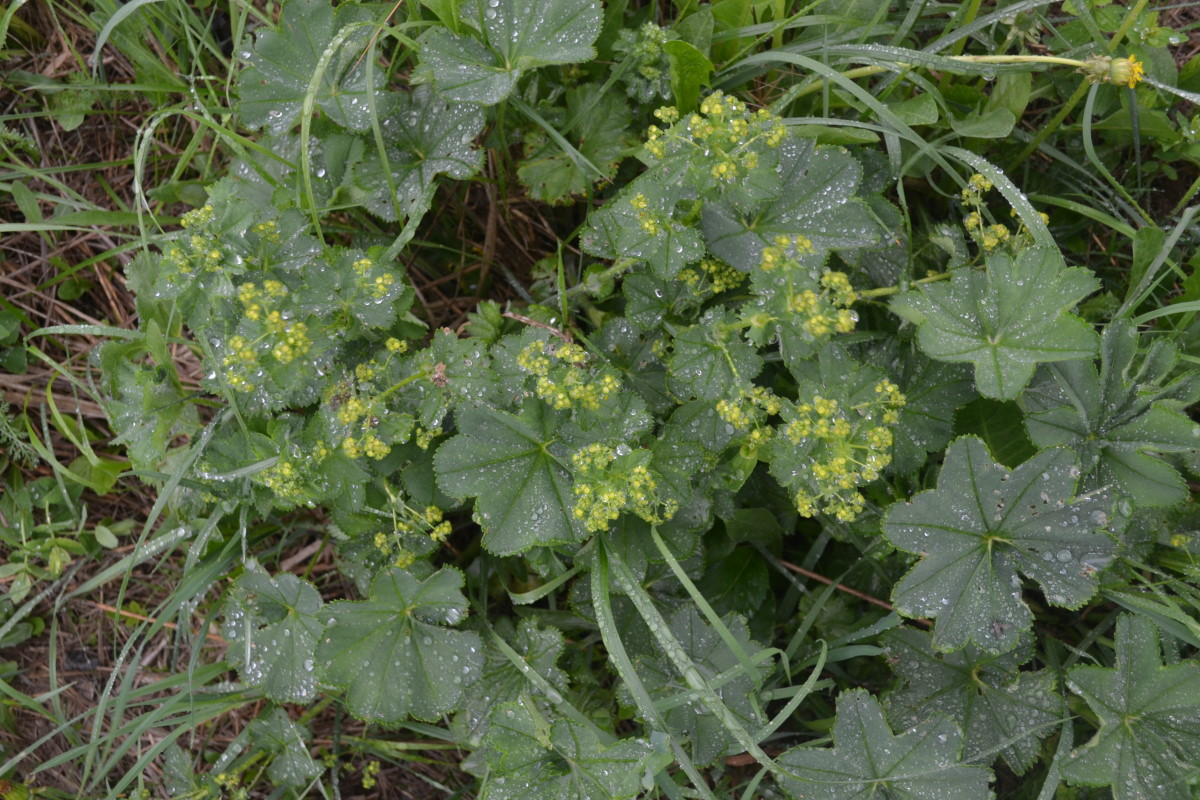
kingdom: Plantae
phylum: Tracheophyta
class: Magnoliopsida
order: Rosales
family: Rosaceae
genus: Alchemilla
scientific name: Alchemilla xanthochlora
